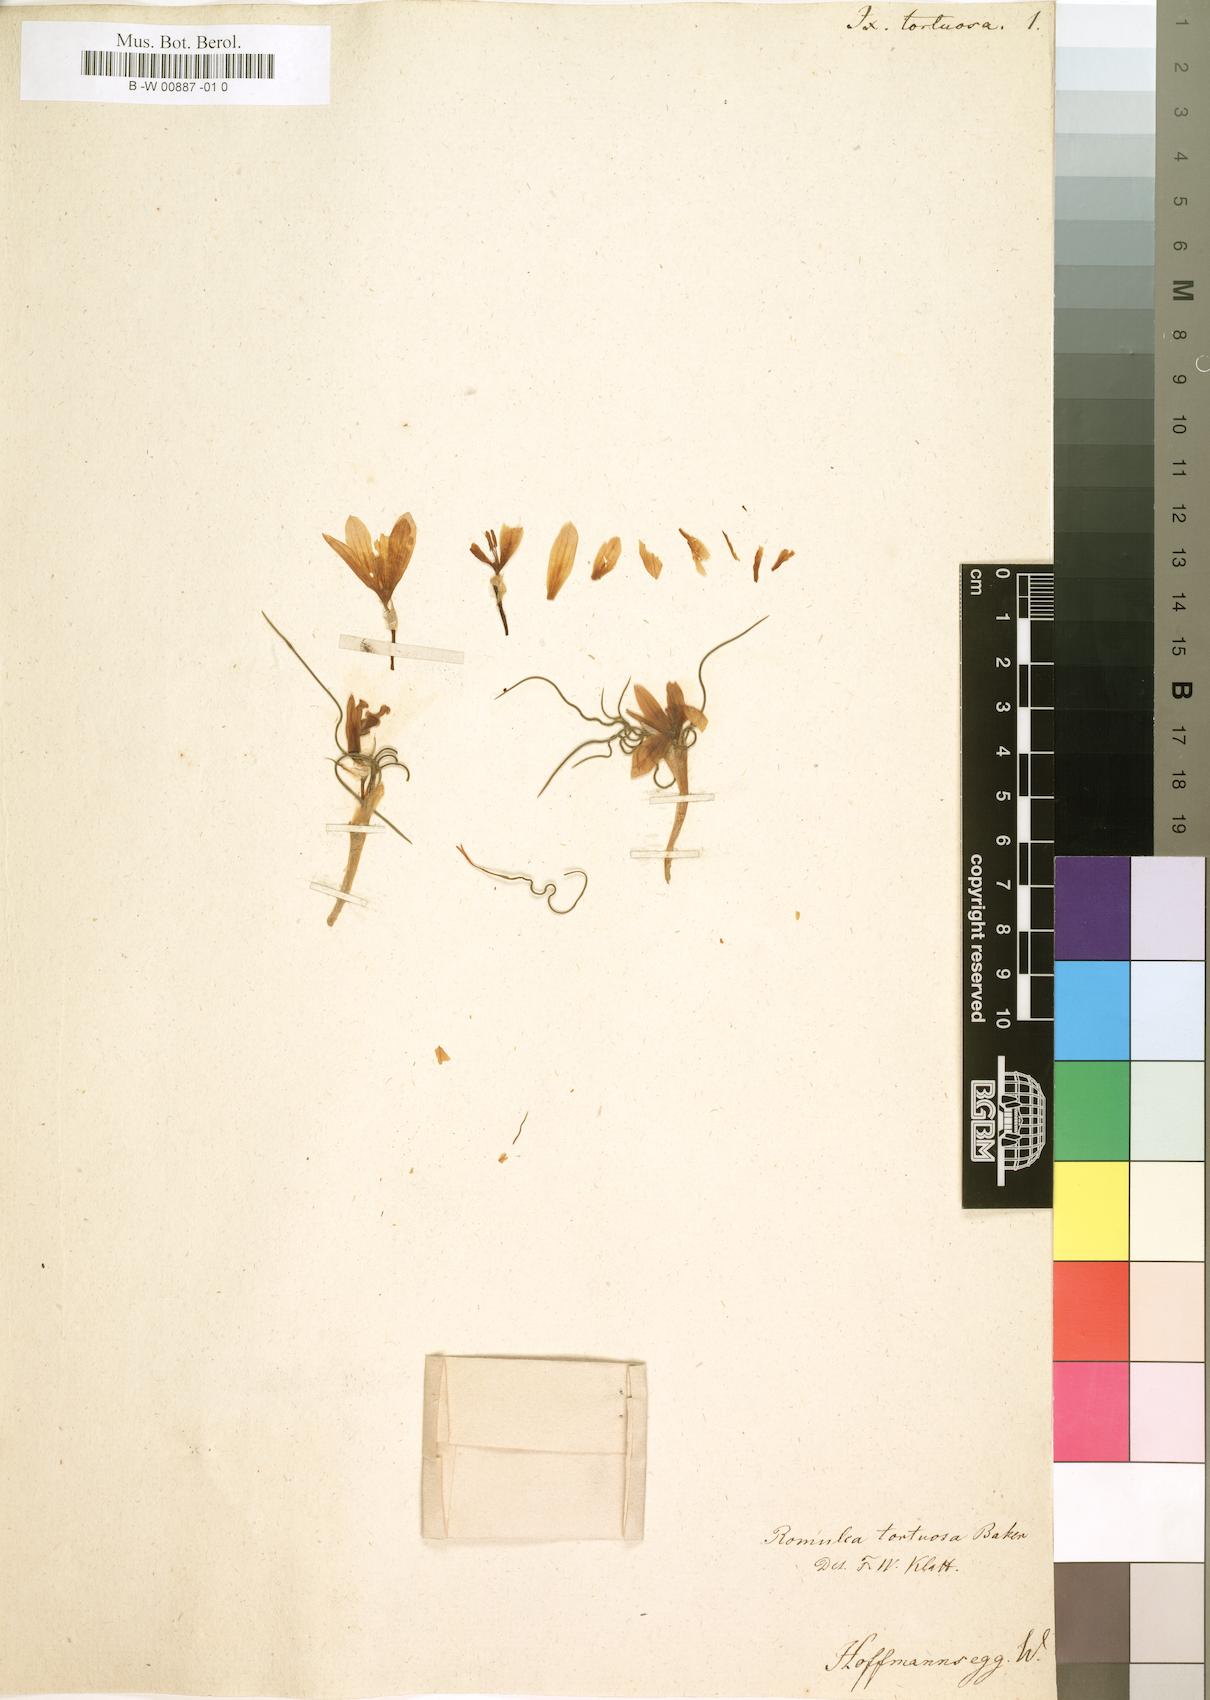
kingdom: Plantae
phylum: Tracheophyta
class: Liliopsida
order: Asparagales
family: Iridaceae
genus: Romulea
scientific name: Romulea tortuosa
